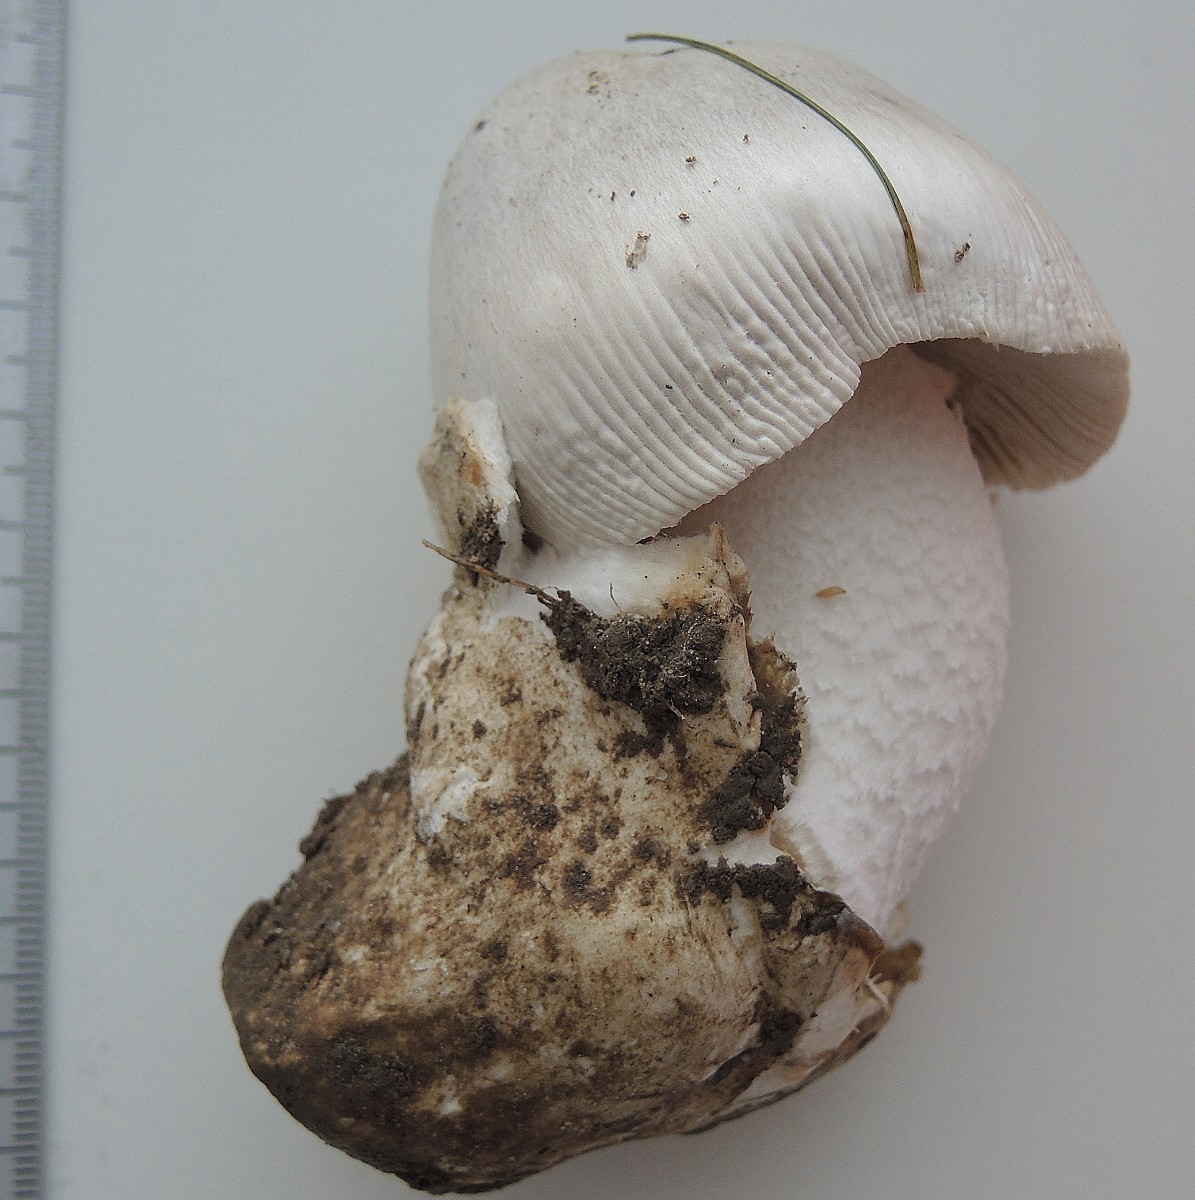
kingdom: Fungi
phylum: Basidiomycota
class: Agaricomycetes
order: Agaricales
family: Amanitaceae
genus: Amanita
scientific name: Amanita huijsmanii
